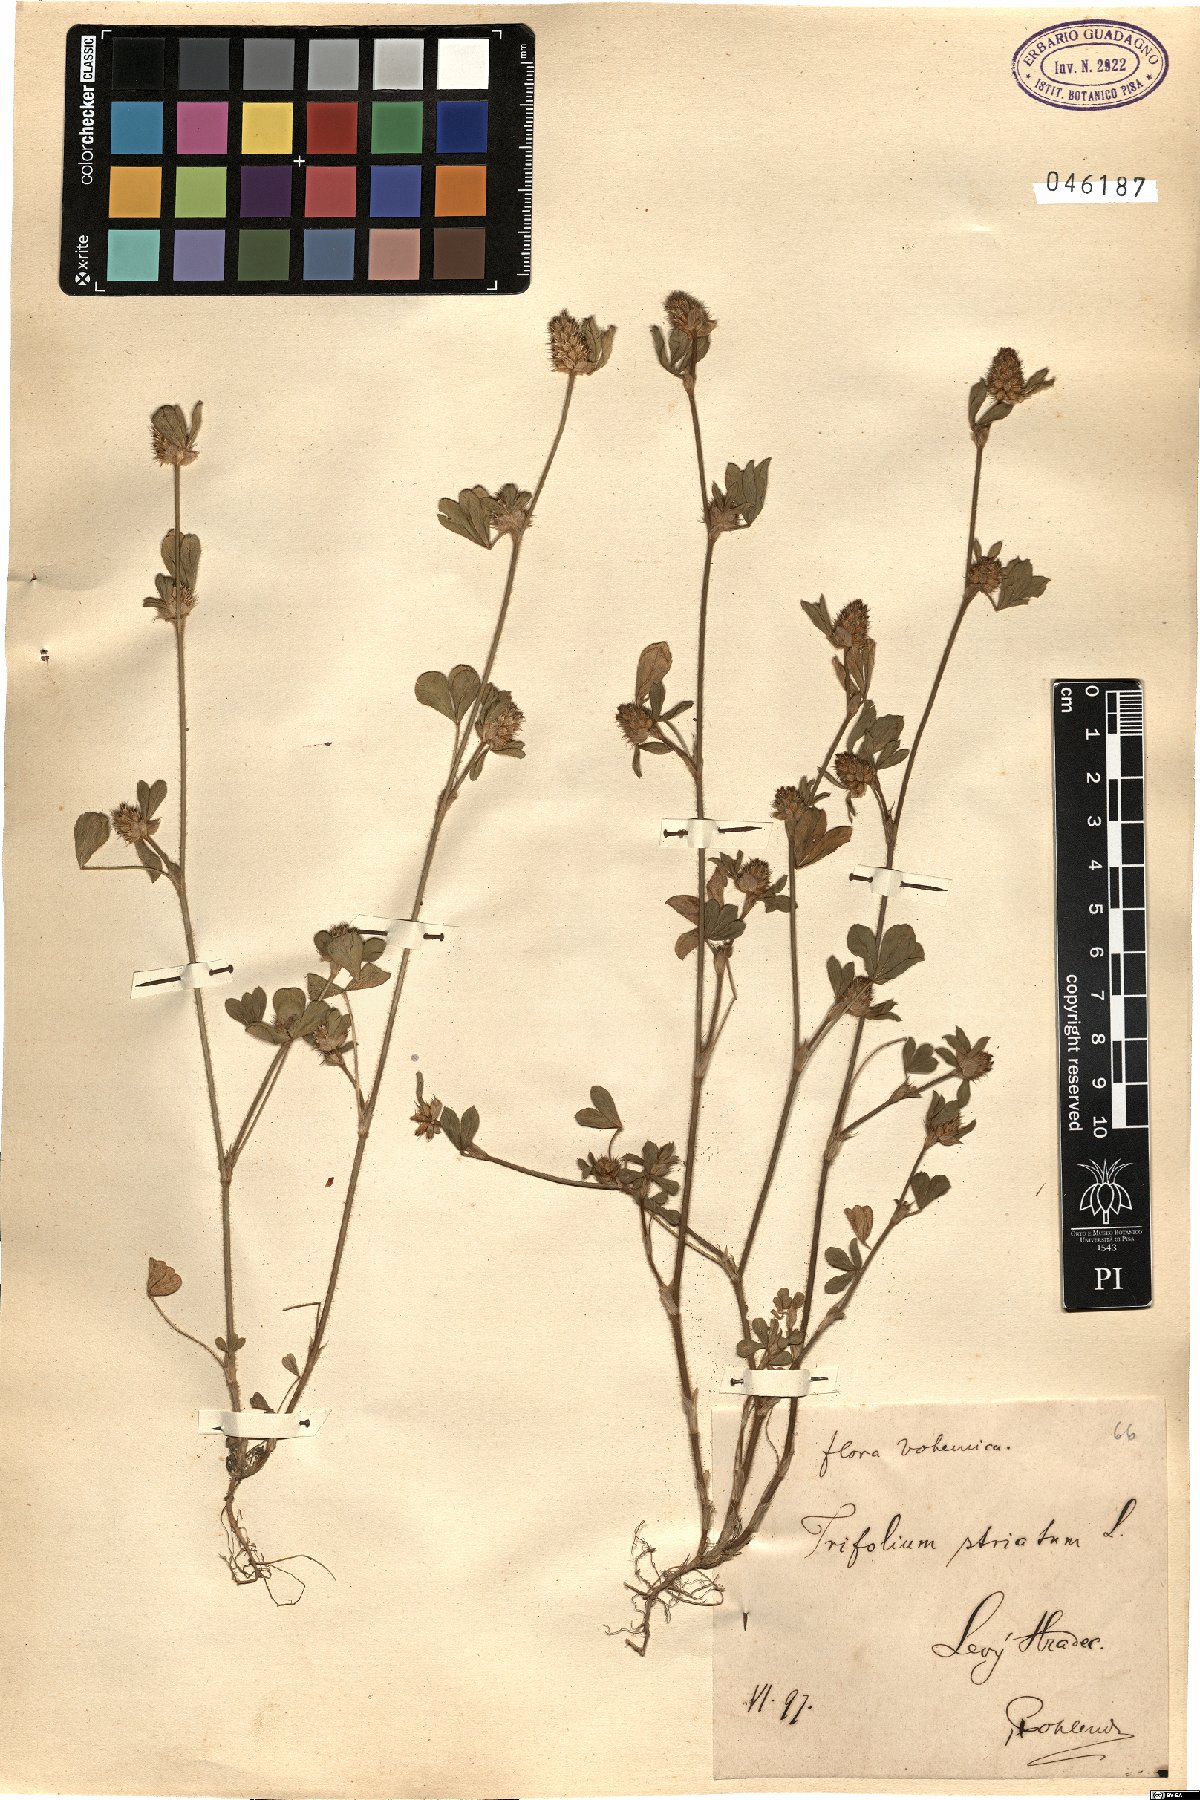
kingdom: Plantae
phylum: Tracheophyta
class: Magnoliopsida
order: Fabales
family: Fabaceae
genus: Trifolium
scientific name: Trifolium striatum
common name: Knotted clover
